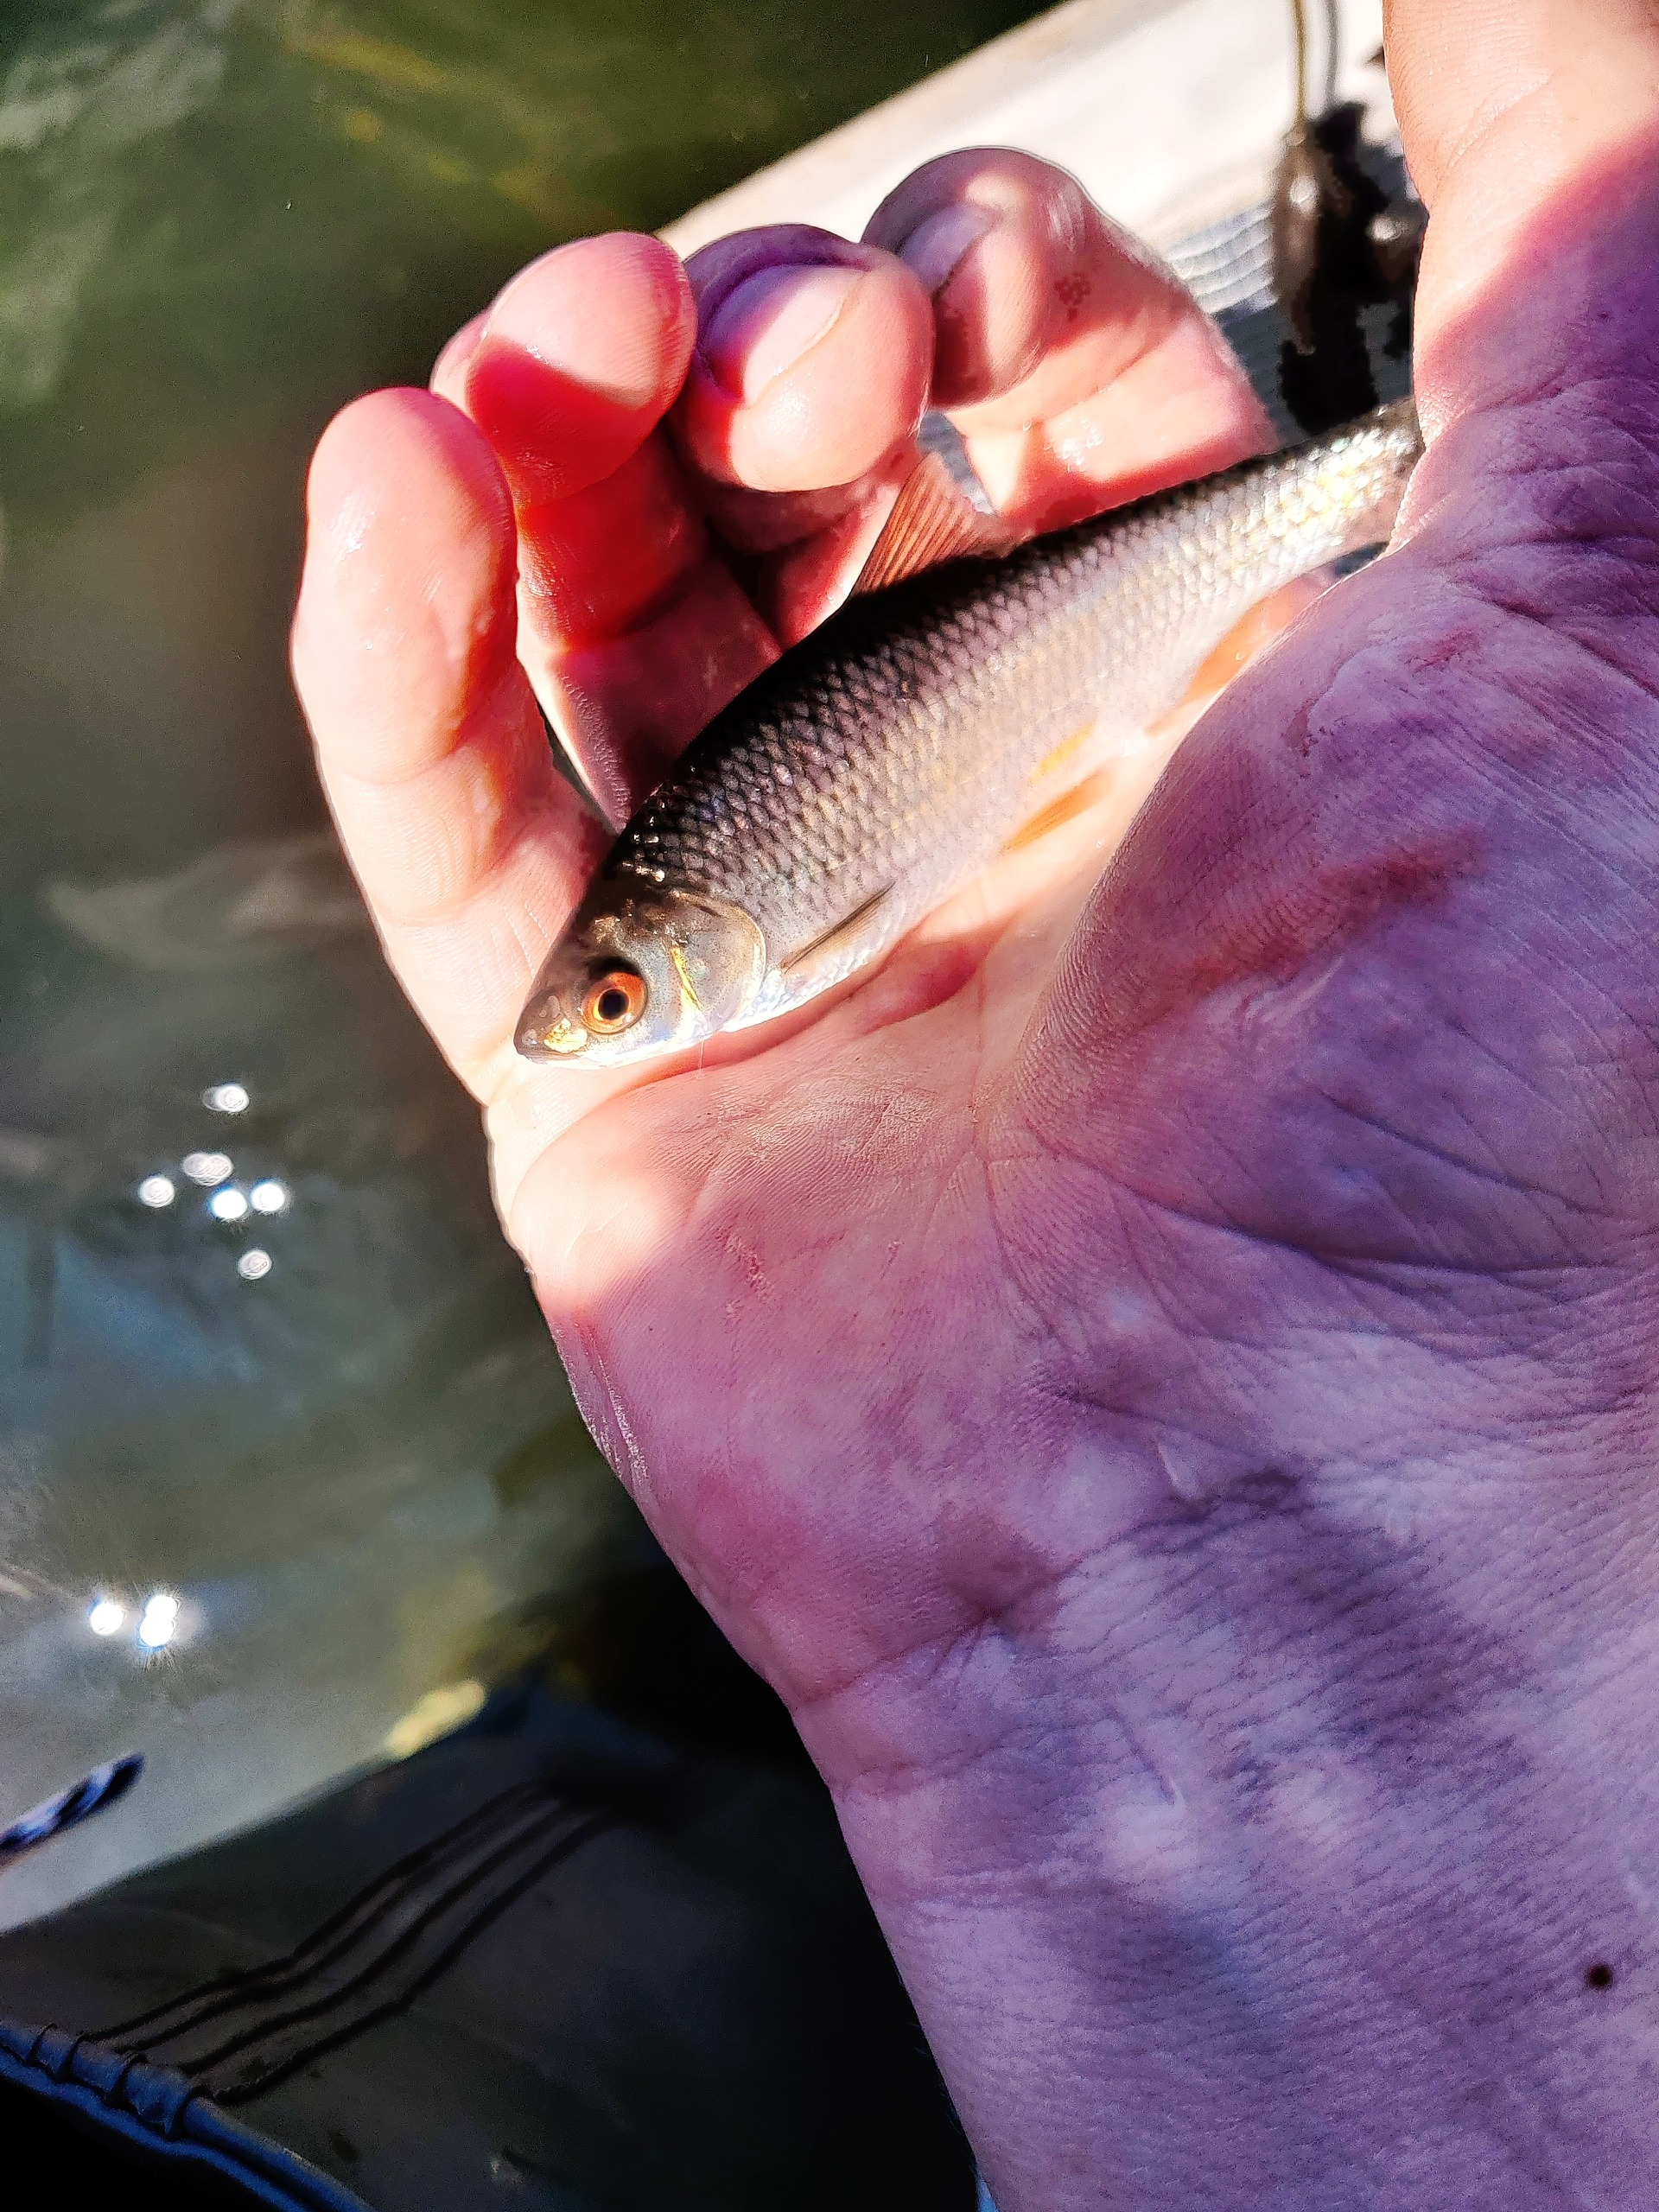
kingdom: Animalia
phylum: Chordata
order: Cypriniformes
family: Cyprinidae
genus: Rutilus
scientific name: Rutilus rutilus
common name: Skalle
